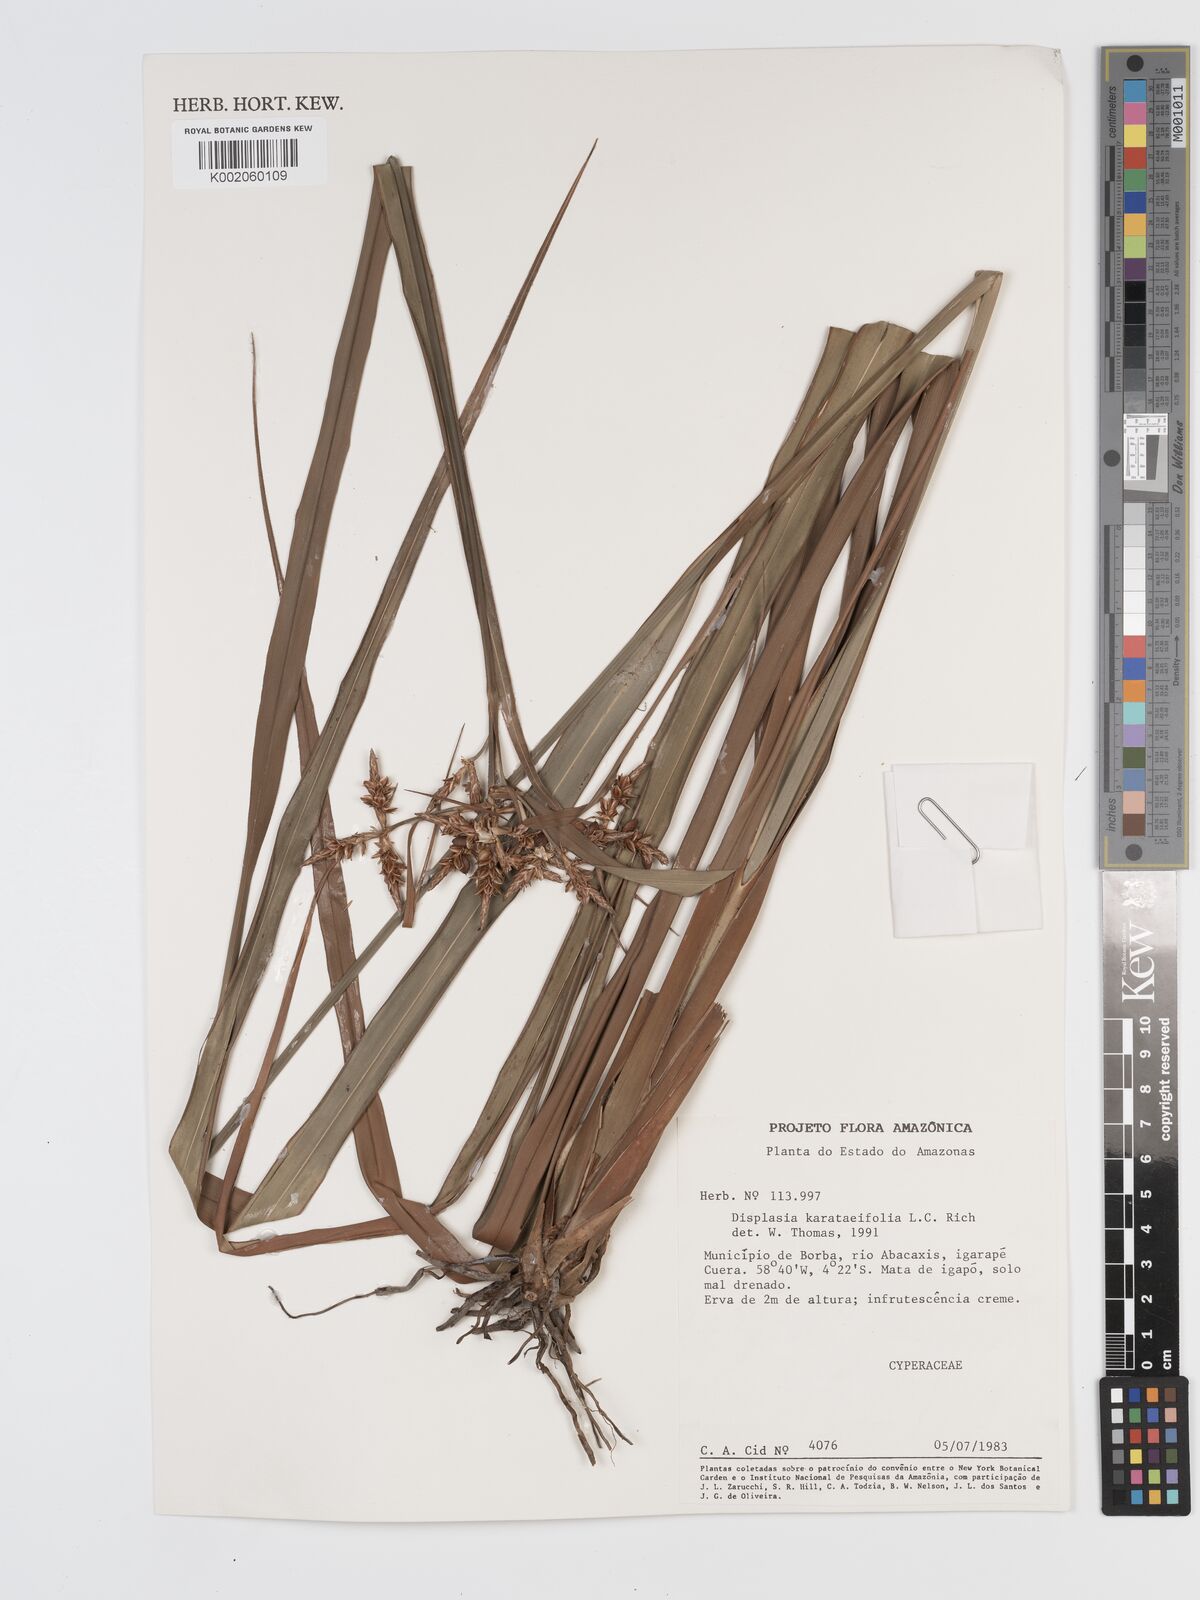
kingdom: Plantae
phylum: Tracheophyta
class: Liliopsida
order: Poales
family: Cyperaceae
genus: Diplasia
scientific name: Diplasia karatifolia
